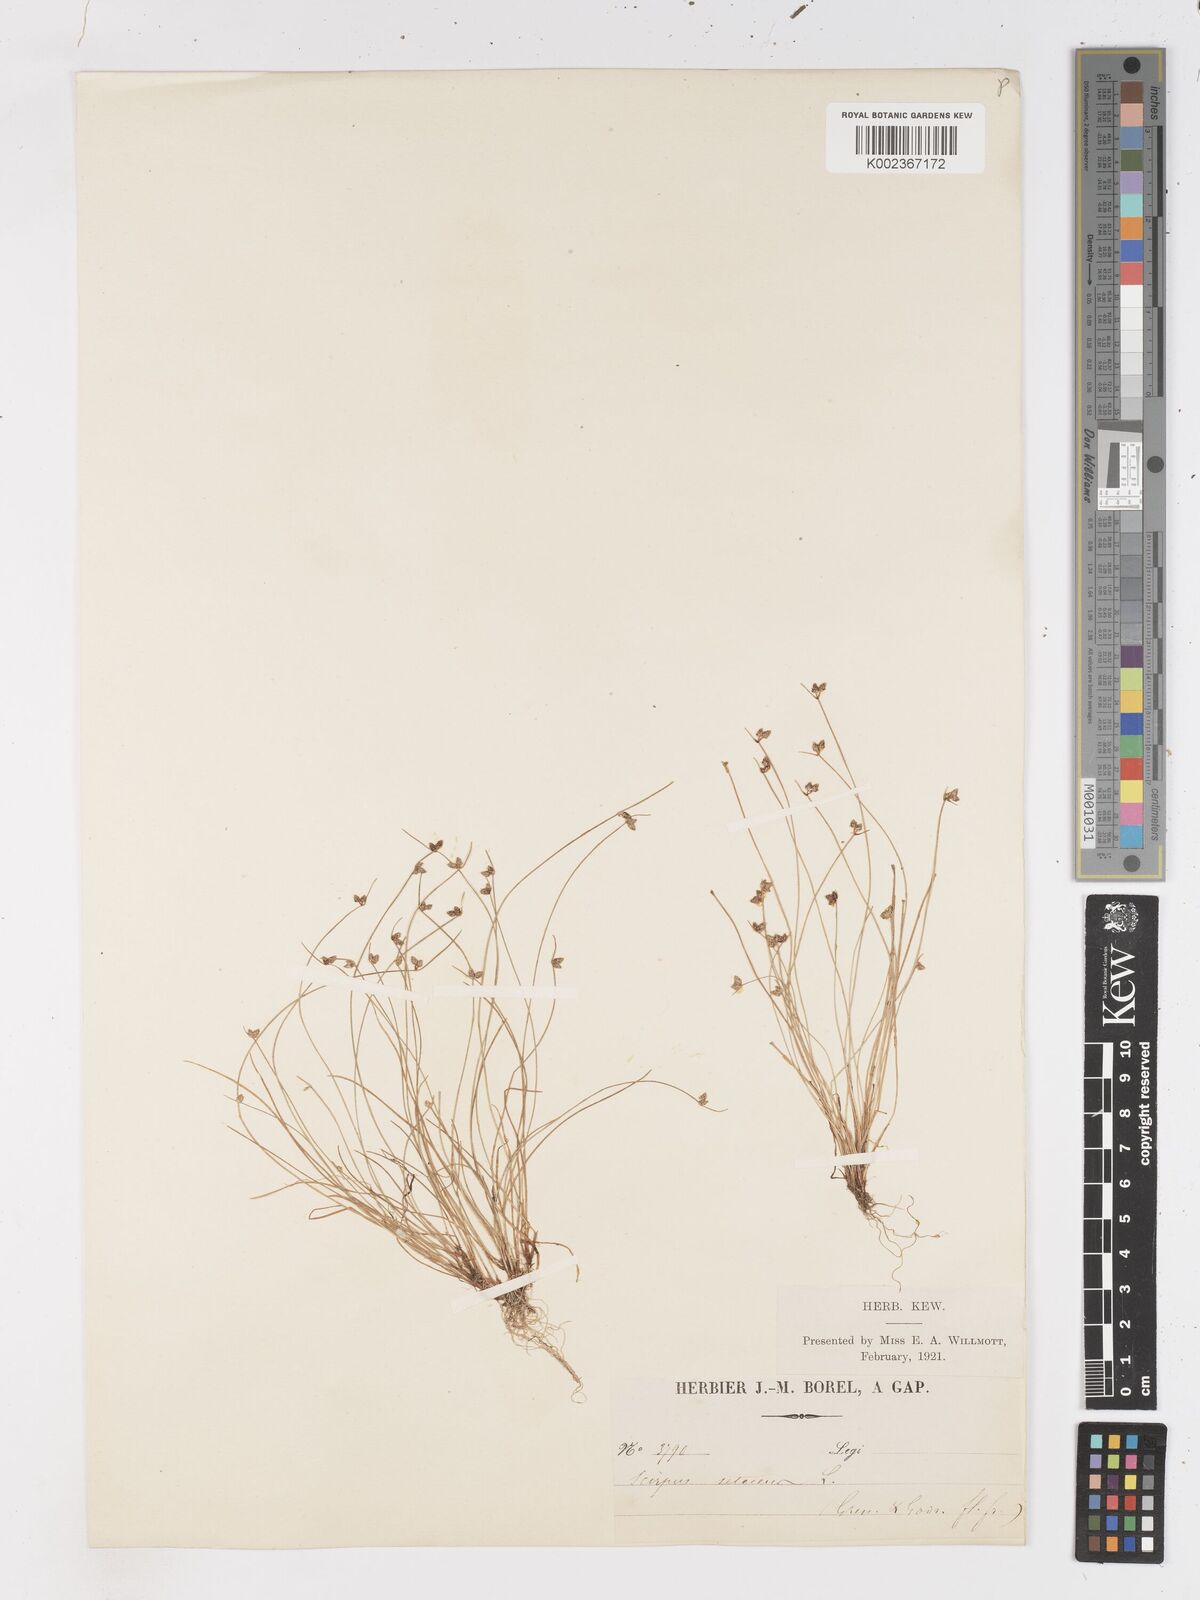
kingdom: Plantae
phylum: Tracheophyta
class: Liliopsida
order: Poales
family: Cyperaceae
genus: Isolepis
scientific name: Isolepis setacea
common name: Bristle club-rush
